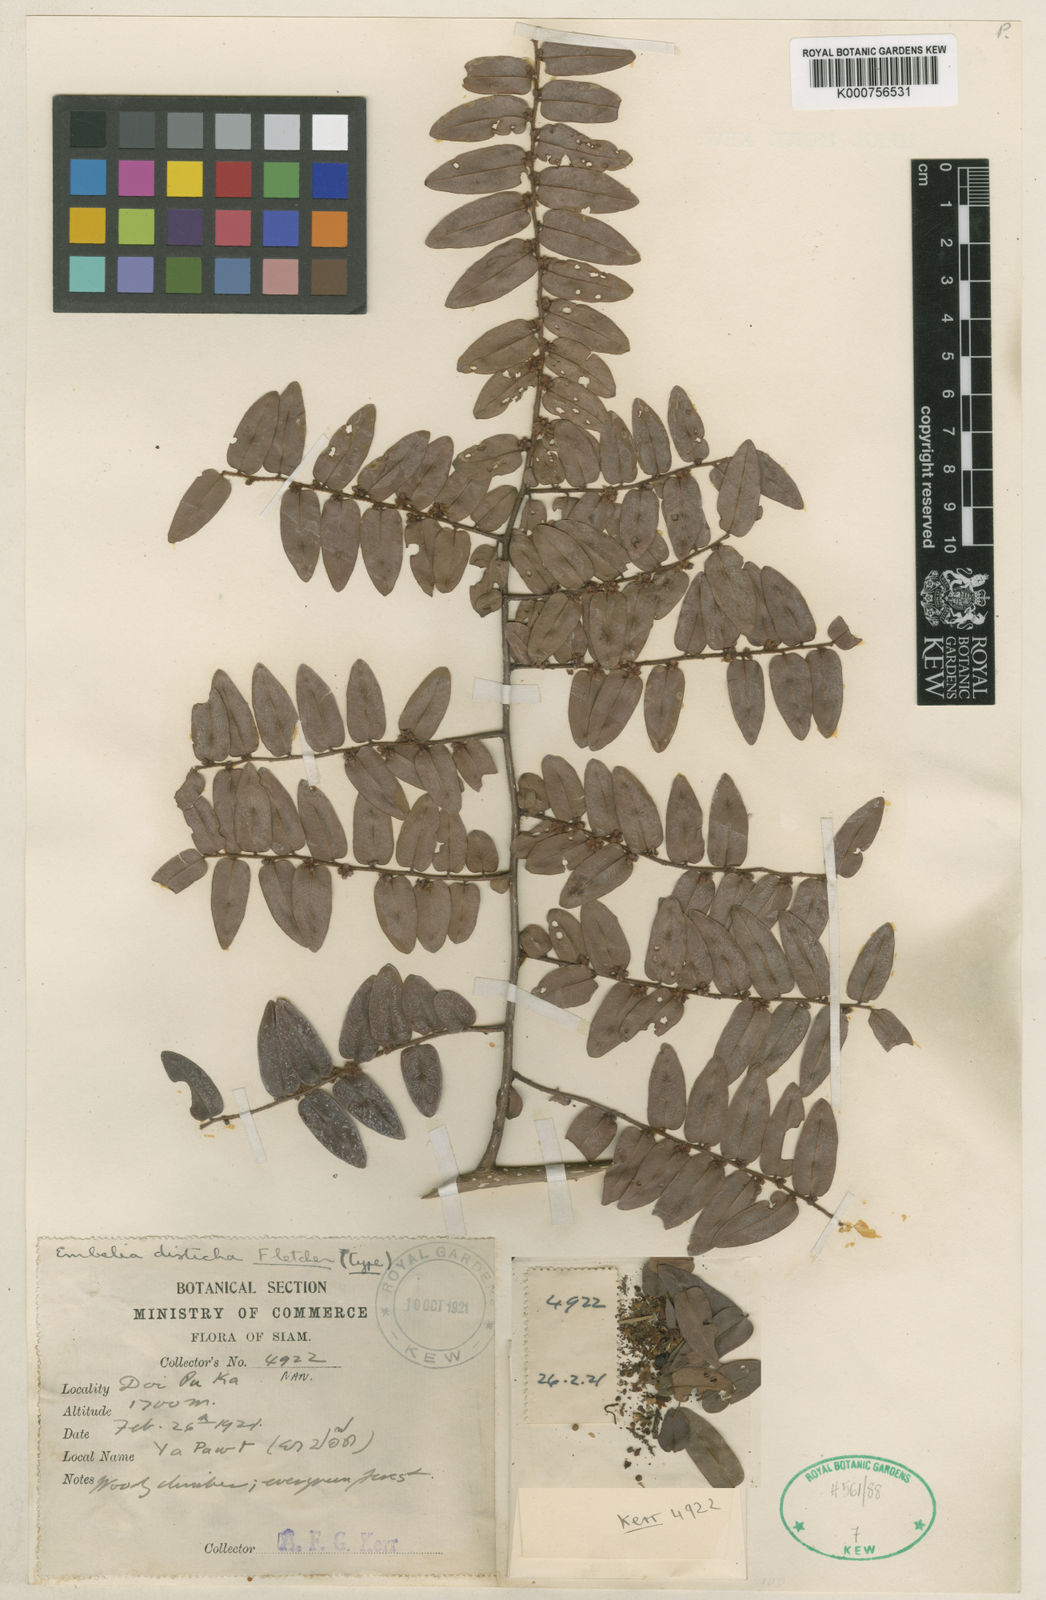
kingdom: Plantae
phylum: Tracheophyta
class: Magnoliopsida
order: Ericales
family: Primulaceae
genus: Embelia
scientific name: Embelia parviflora
